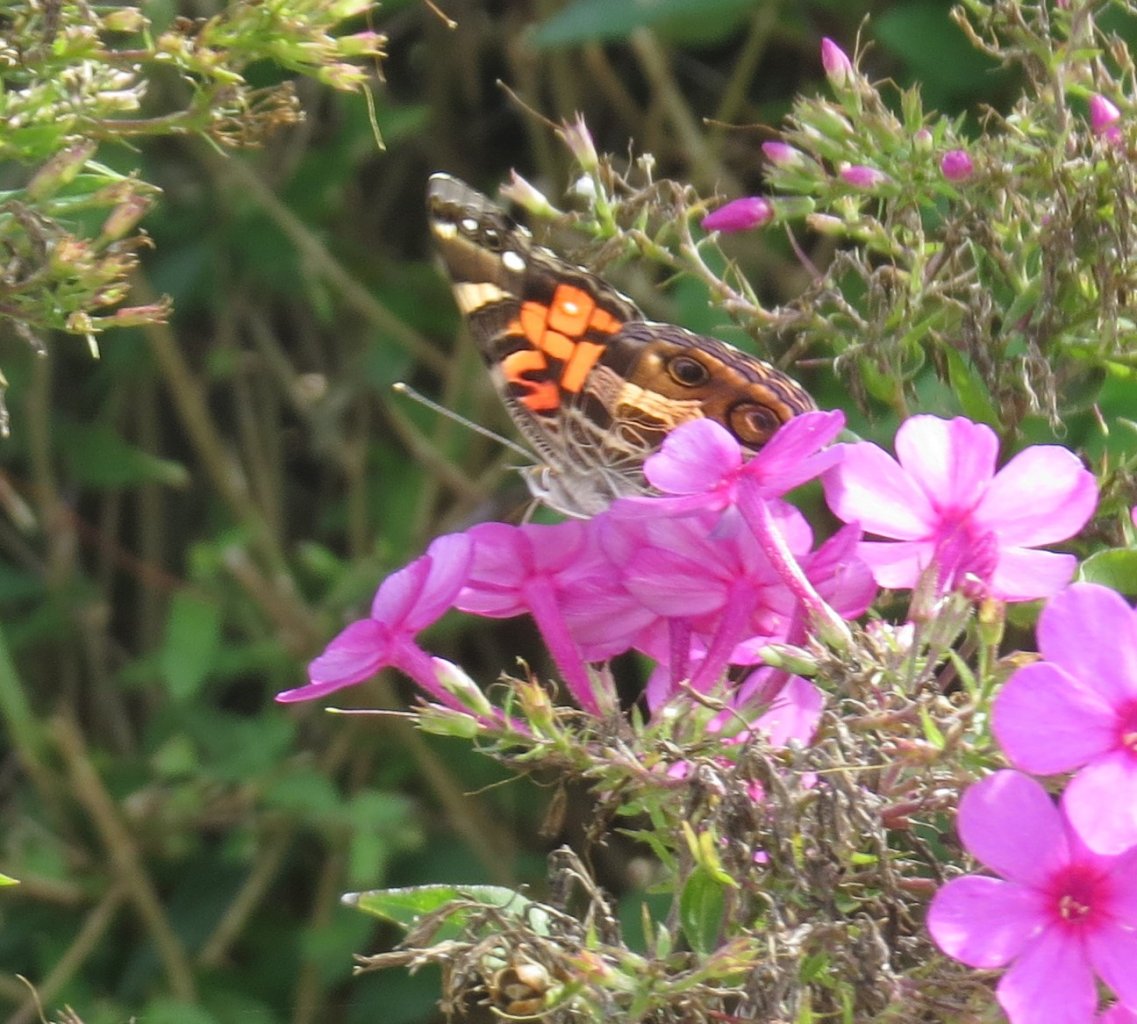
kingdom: Animalia
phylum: Arthropoda
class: Insecta
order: Lepidoptera
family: Nymphalidae
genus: Vanessa
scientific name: Vanessa virginiensis
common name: American Lady
